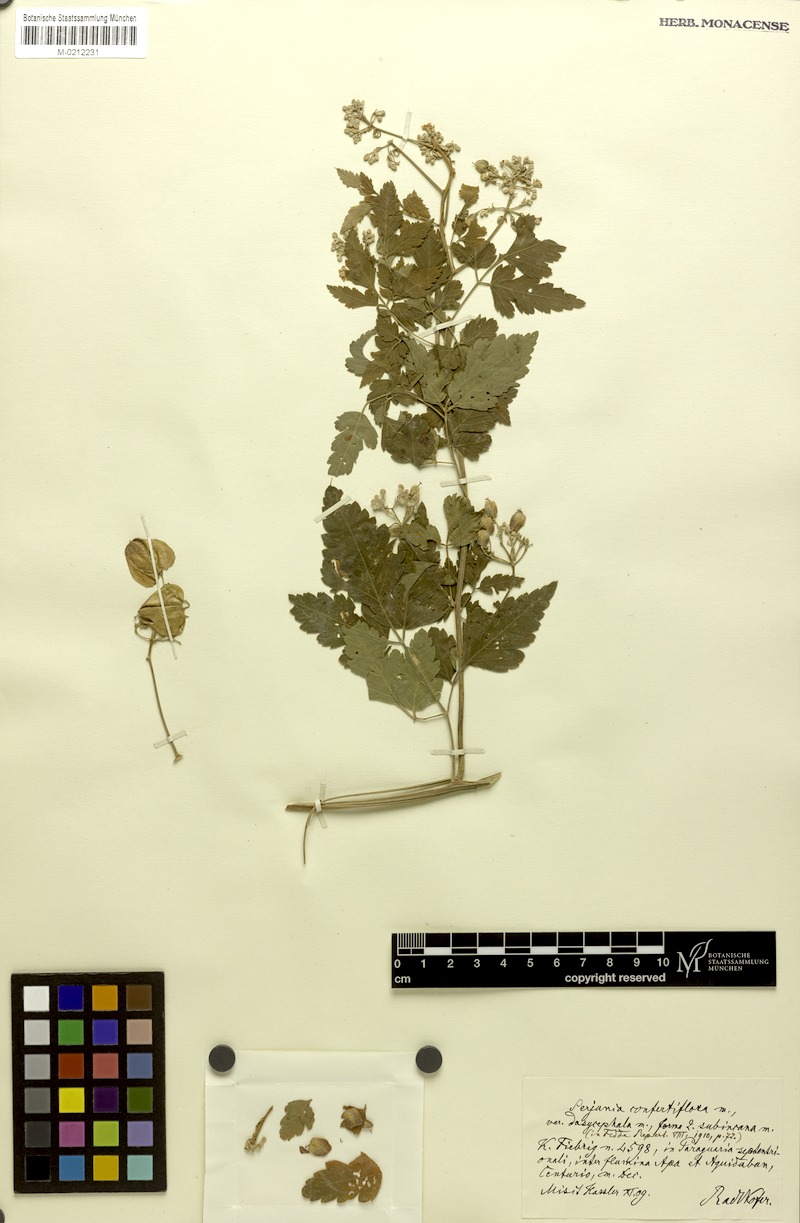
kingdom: Plantae
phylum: Tracheophyta
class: Magnoliopsida
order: Sapindales
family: Sapindaceae
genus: Serjania
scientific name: Serjania confertiflora
